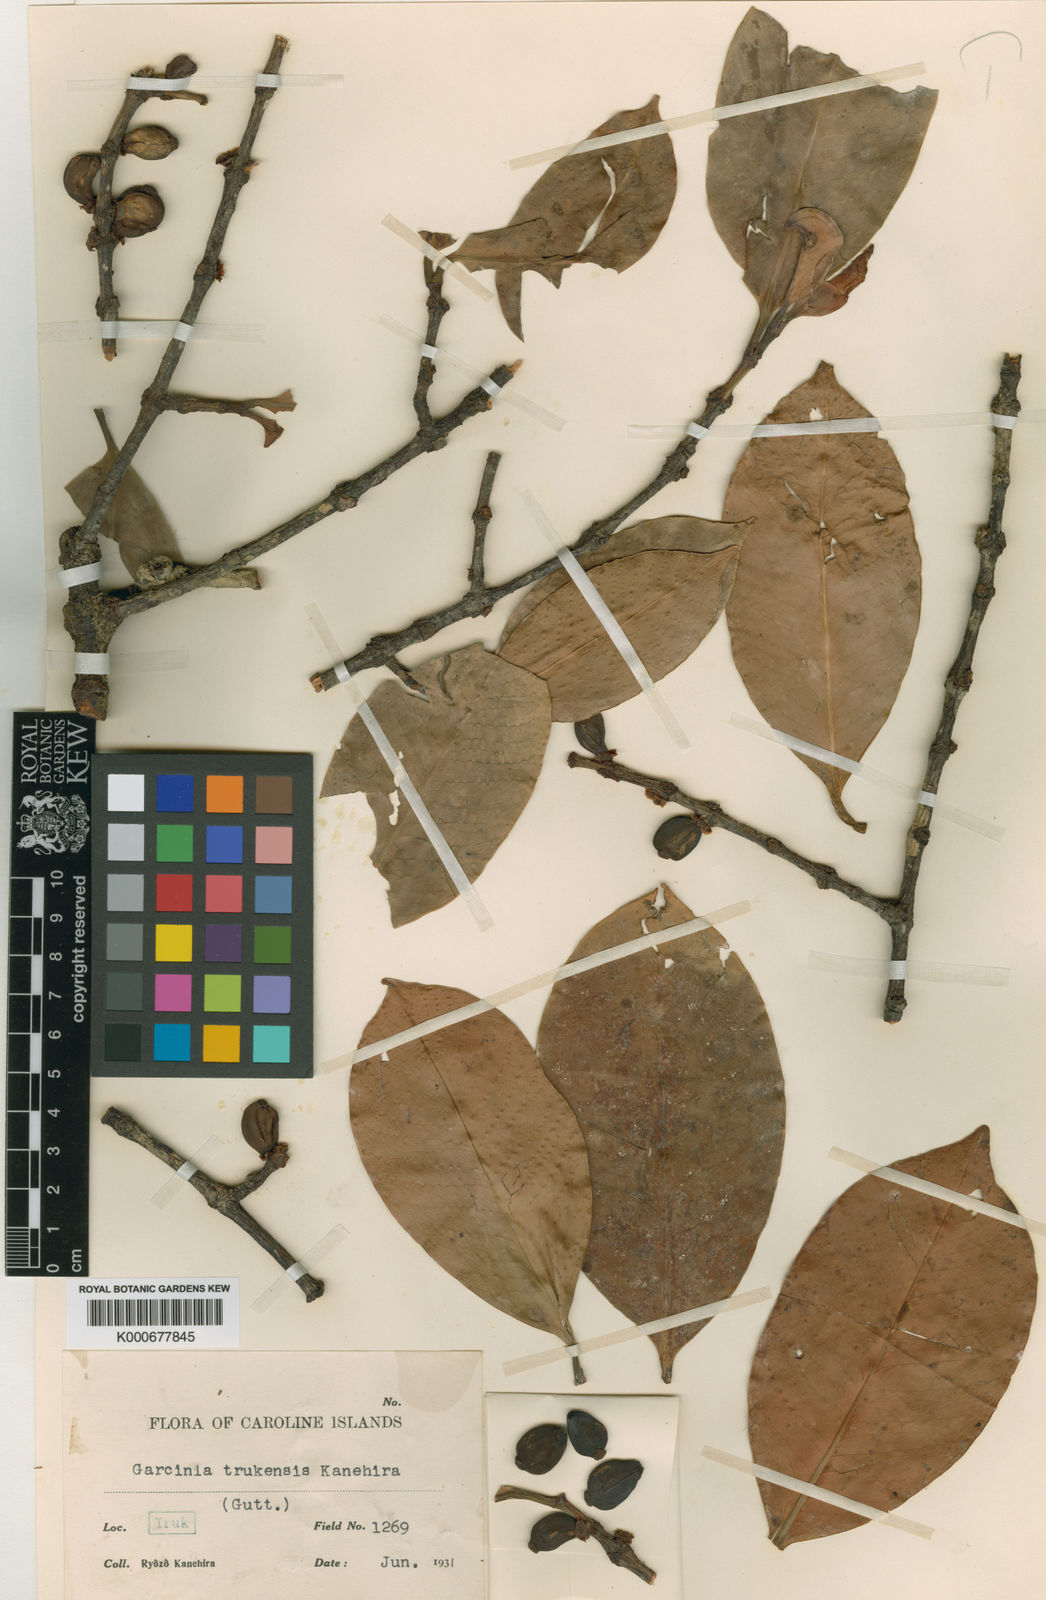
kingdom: Plantae
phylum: Tracheophyta
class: Magnoliopsida
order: Malpighiales
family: Clusiaceae
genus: Garcinia
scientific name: Garcinia ponapensis
